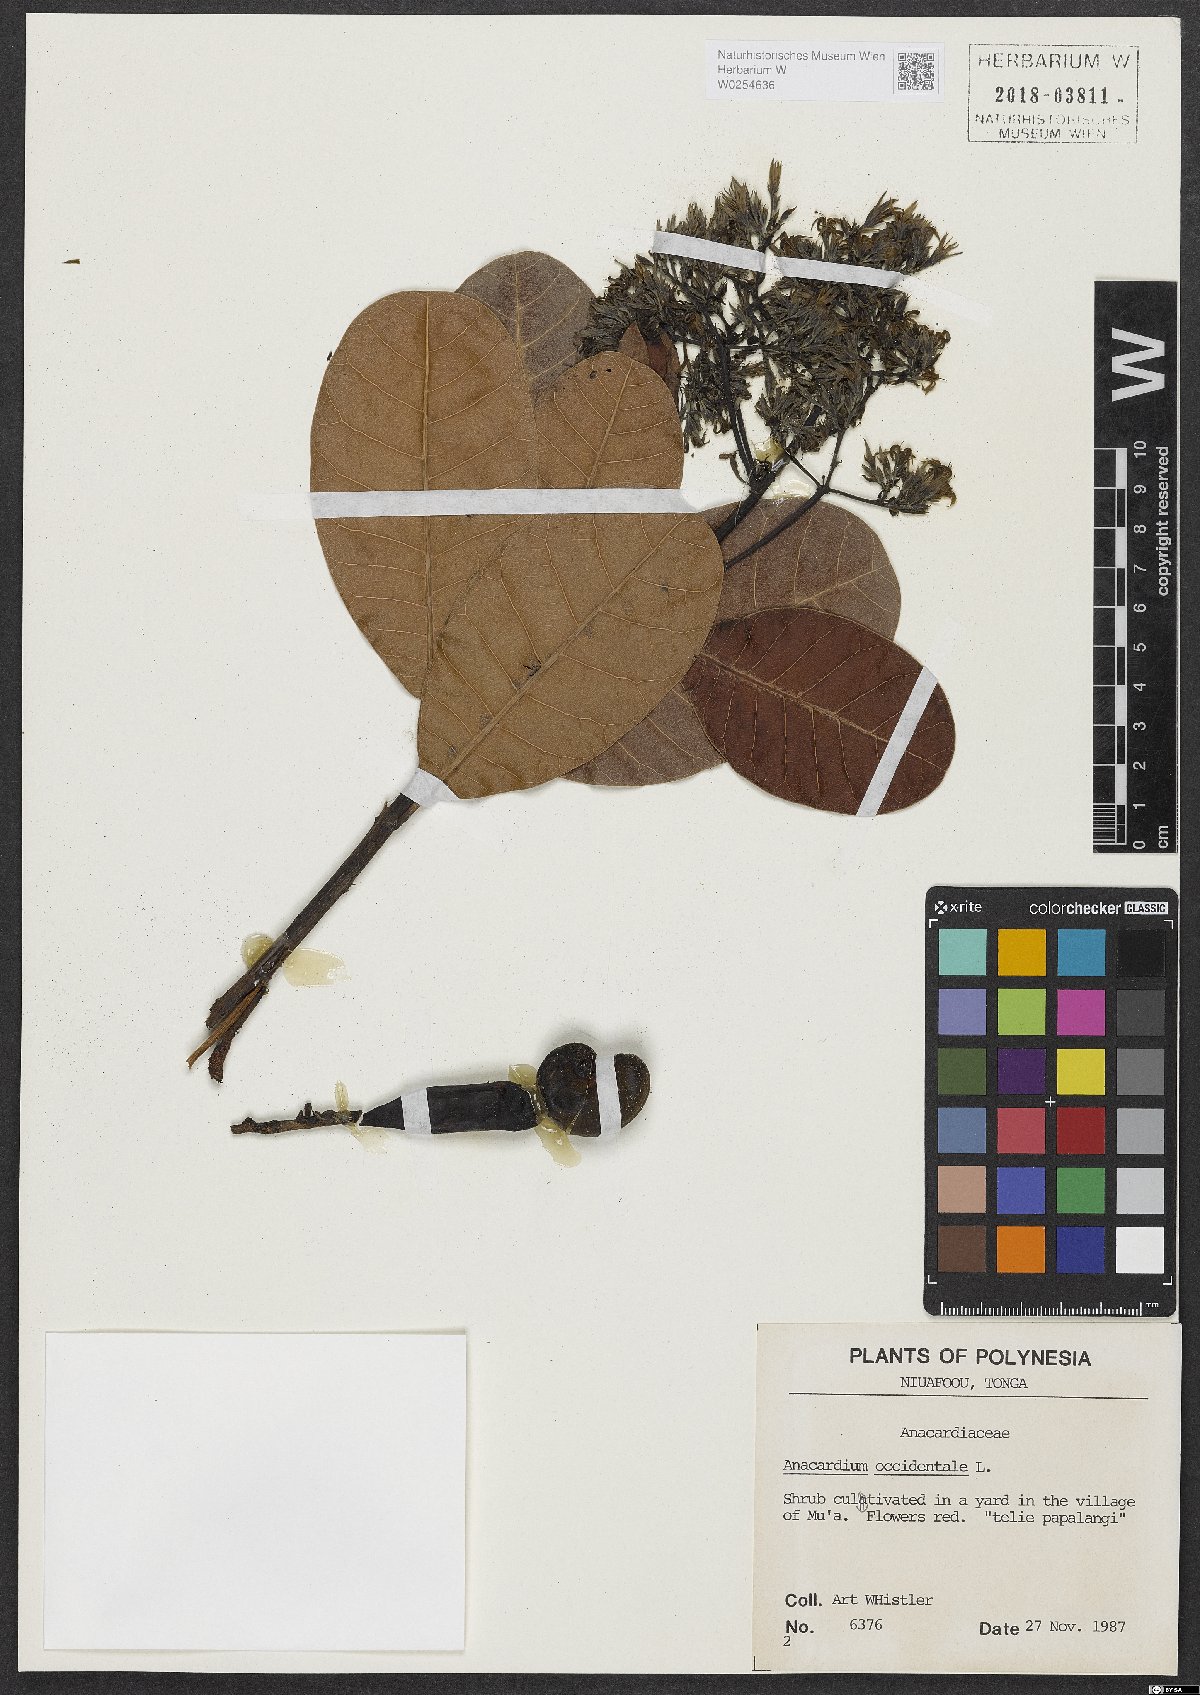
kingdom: Plantae
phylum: Tracheophyta
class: Magnoliopsida
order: Sapindales
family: Anacardiaceae
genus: Anacardium
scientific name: Anacardium occidentale
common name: Cashew
